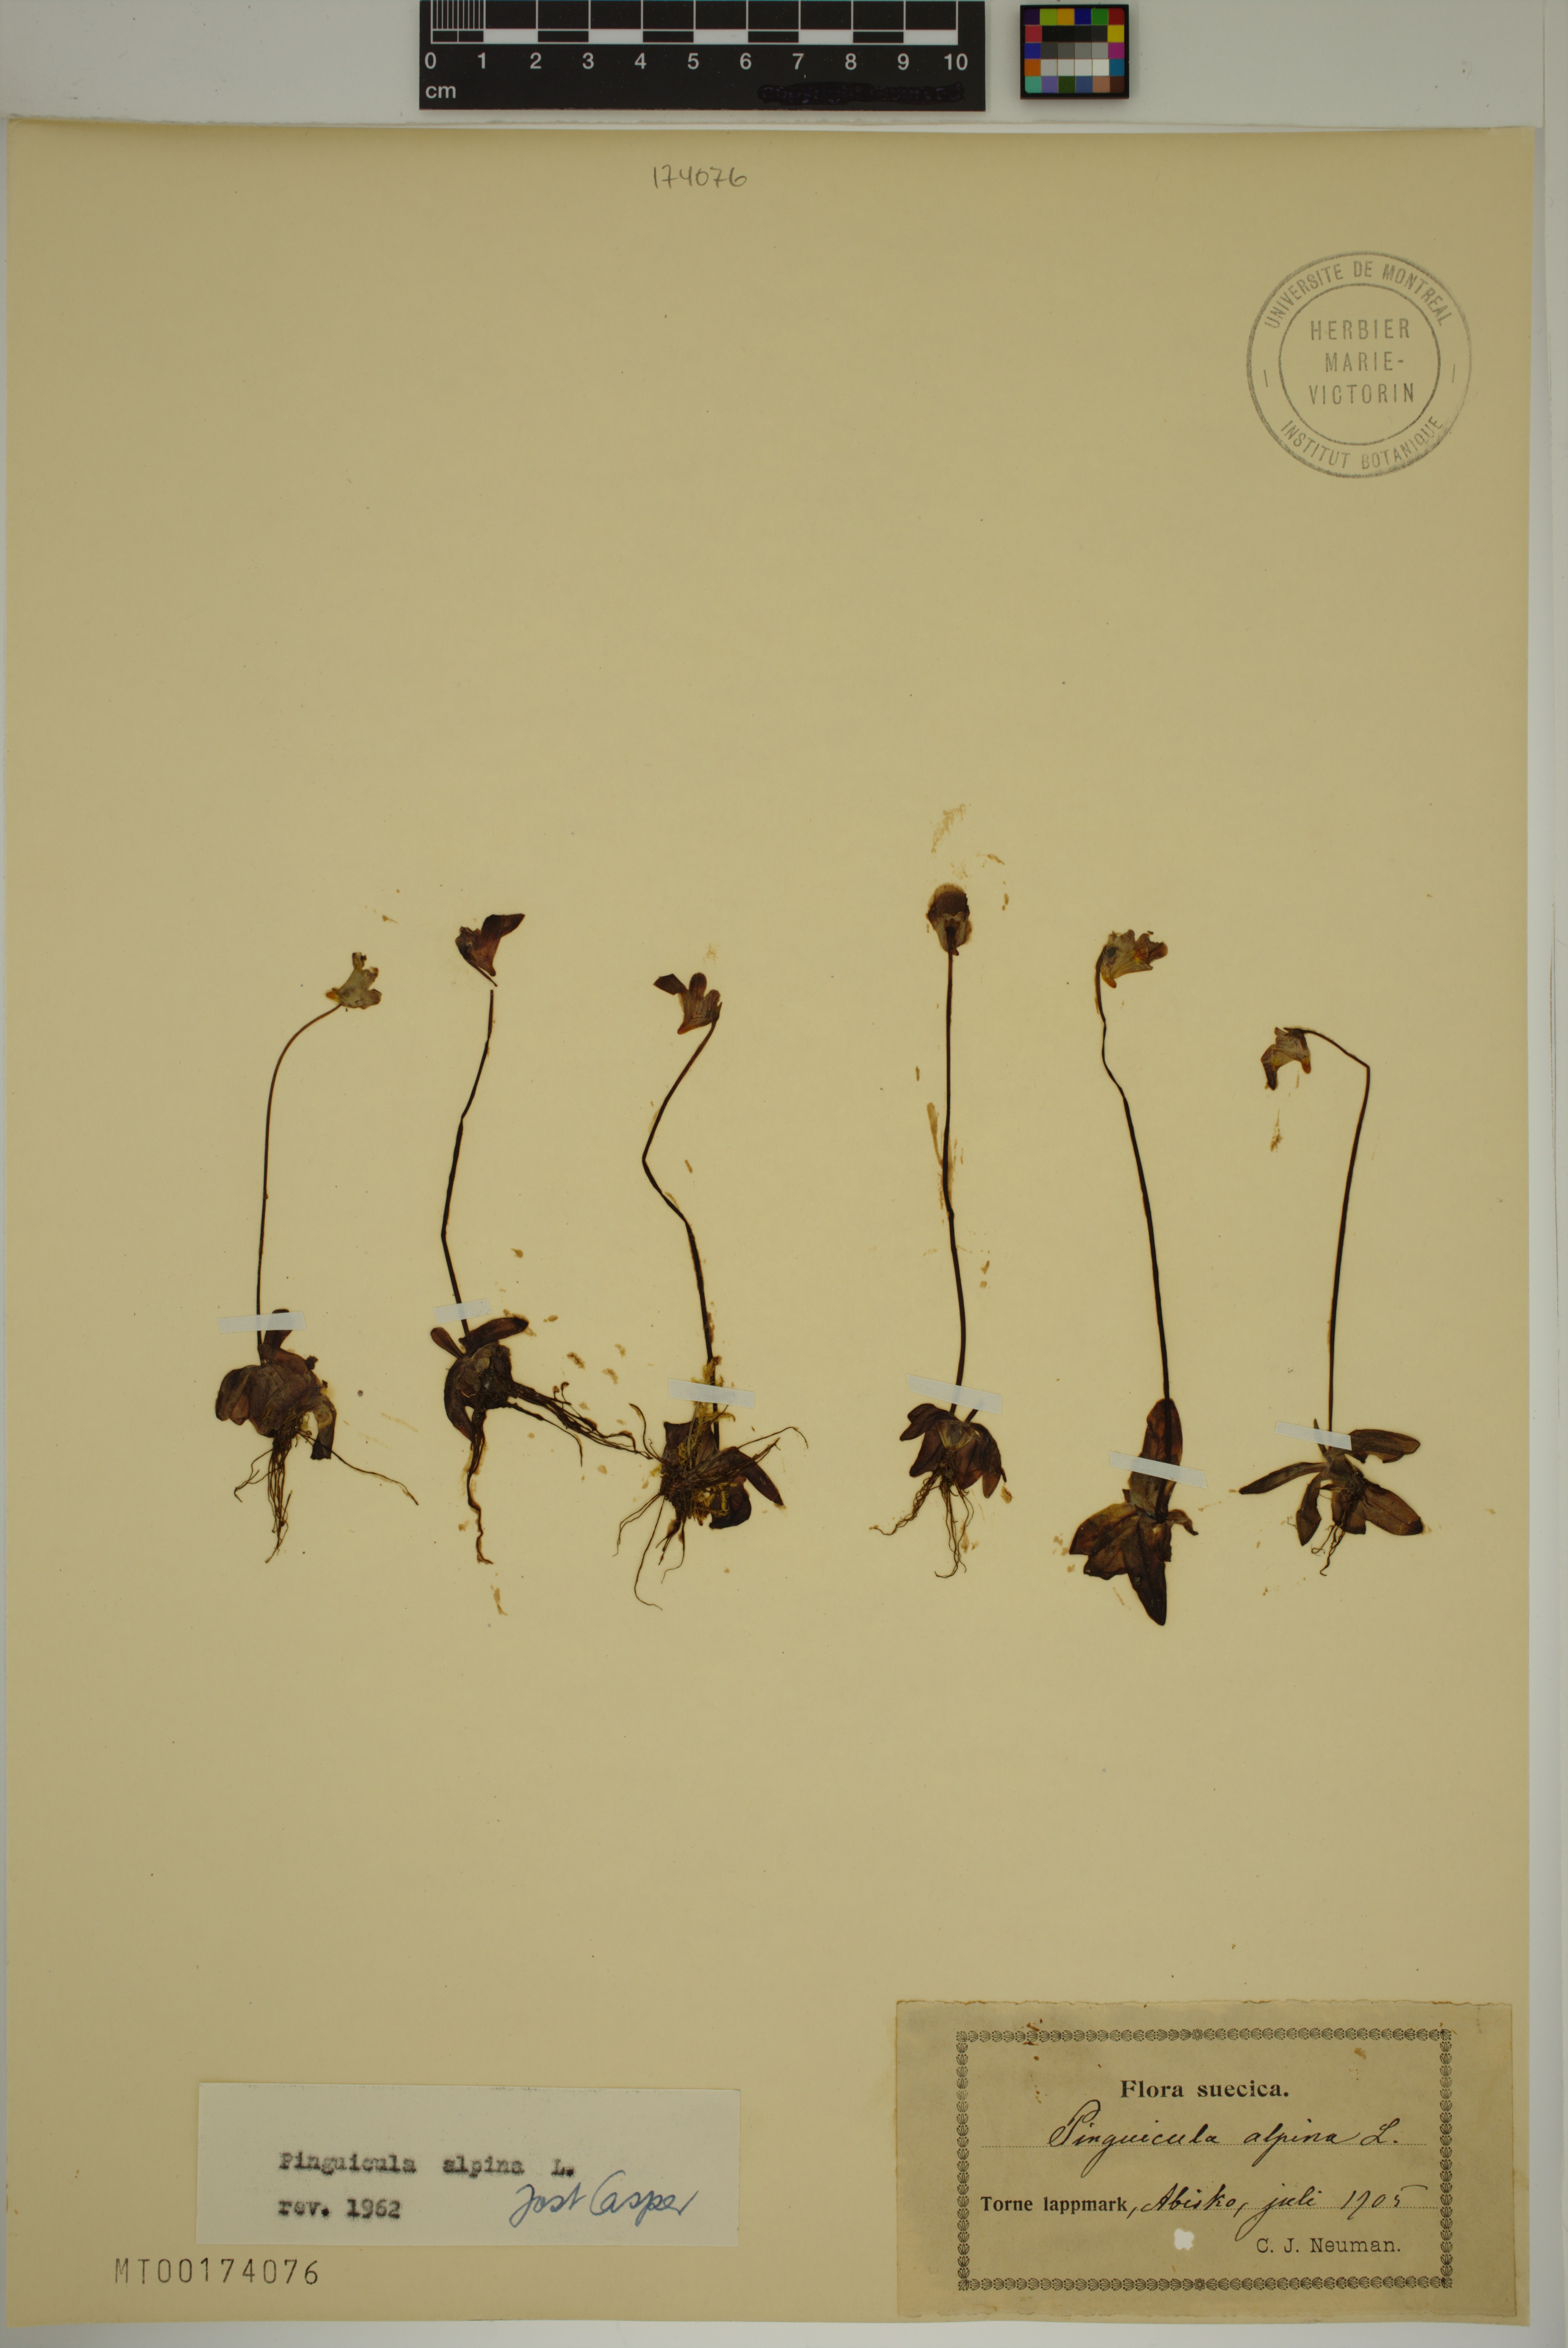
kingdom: Plantae
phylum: Tracheophyta
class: Magnoliopsida
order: Lamiales
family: Lentibulariaceae
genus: Pinguicula
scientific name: Pinguicula alpina
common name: Alpine butterwort
